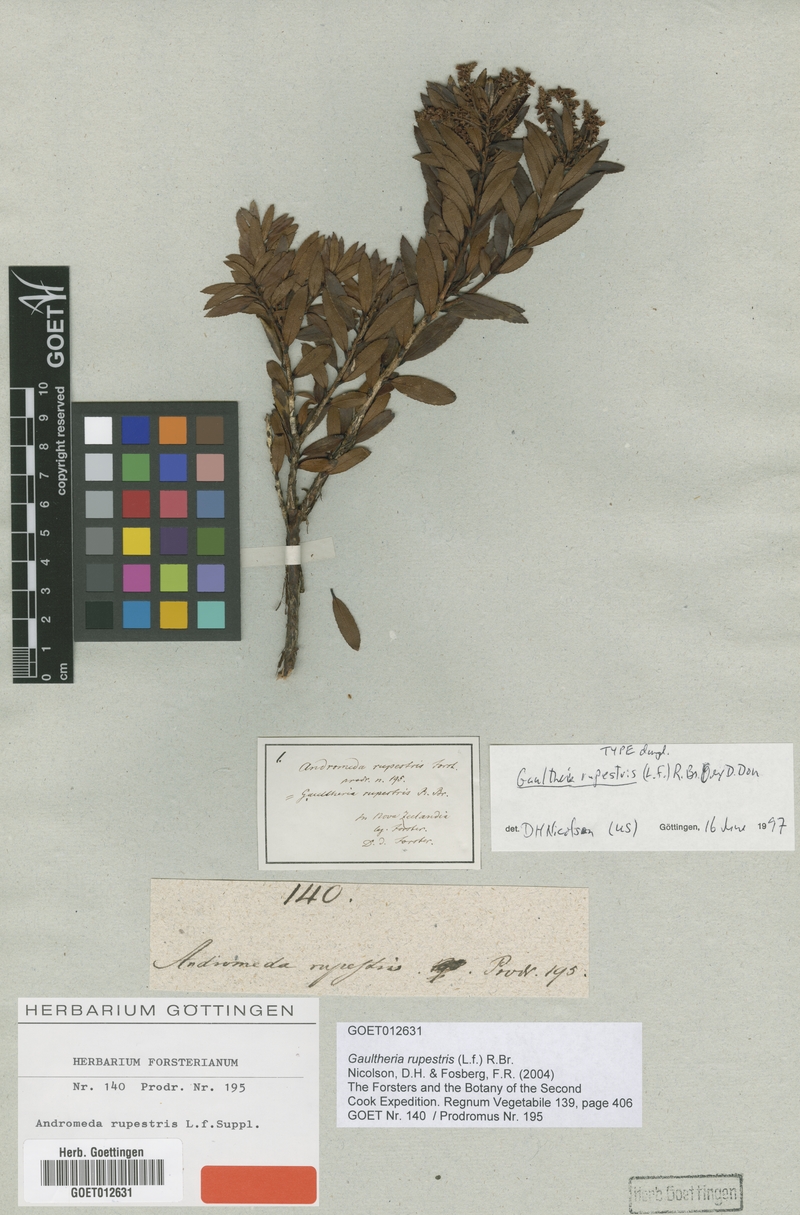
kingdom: Plantae
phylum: Tracheophyta
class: Magnoliopsida
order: Ericales
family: Ericaceae
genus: Gaultheria
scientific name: Gaultheria rupestris
